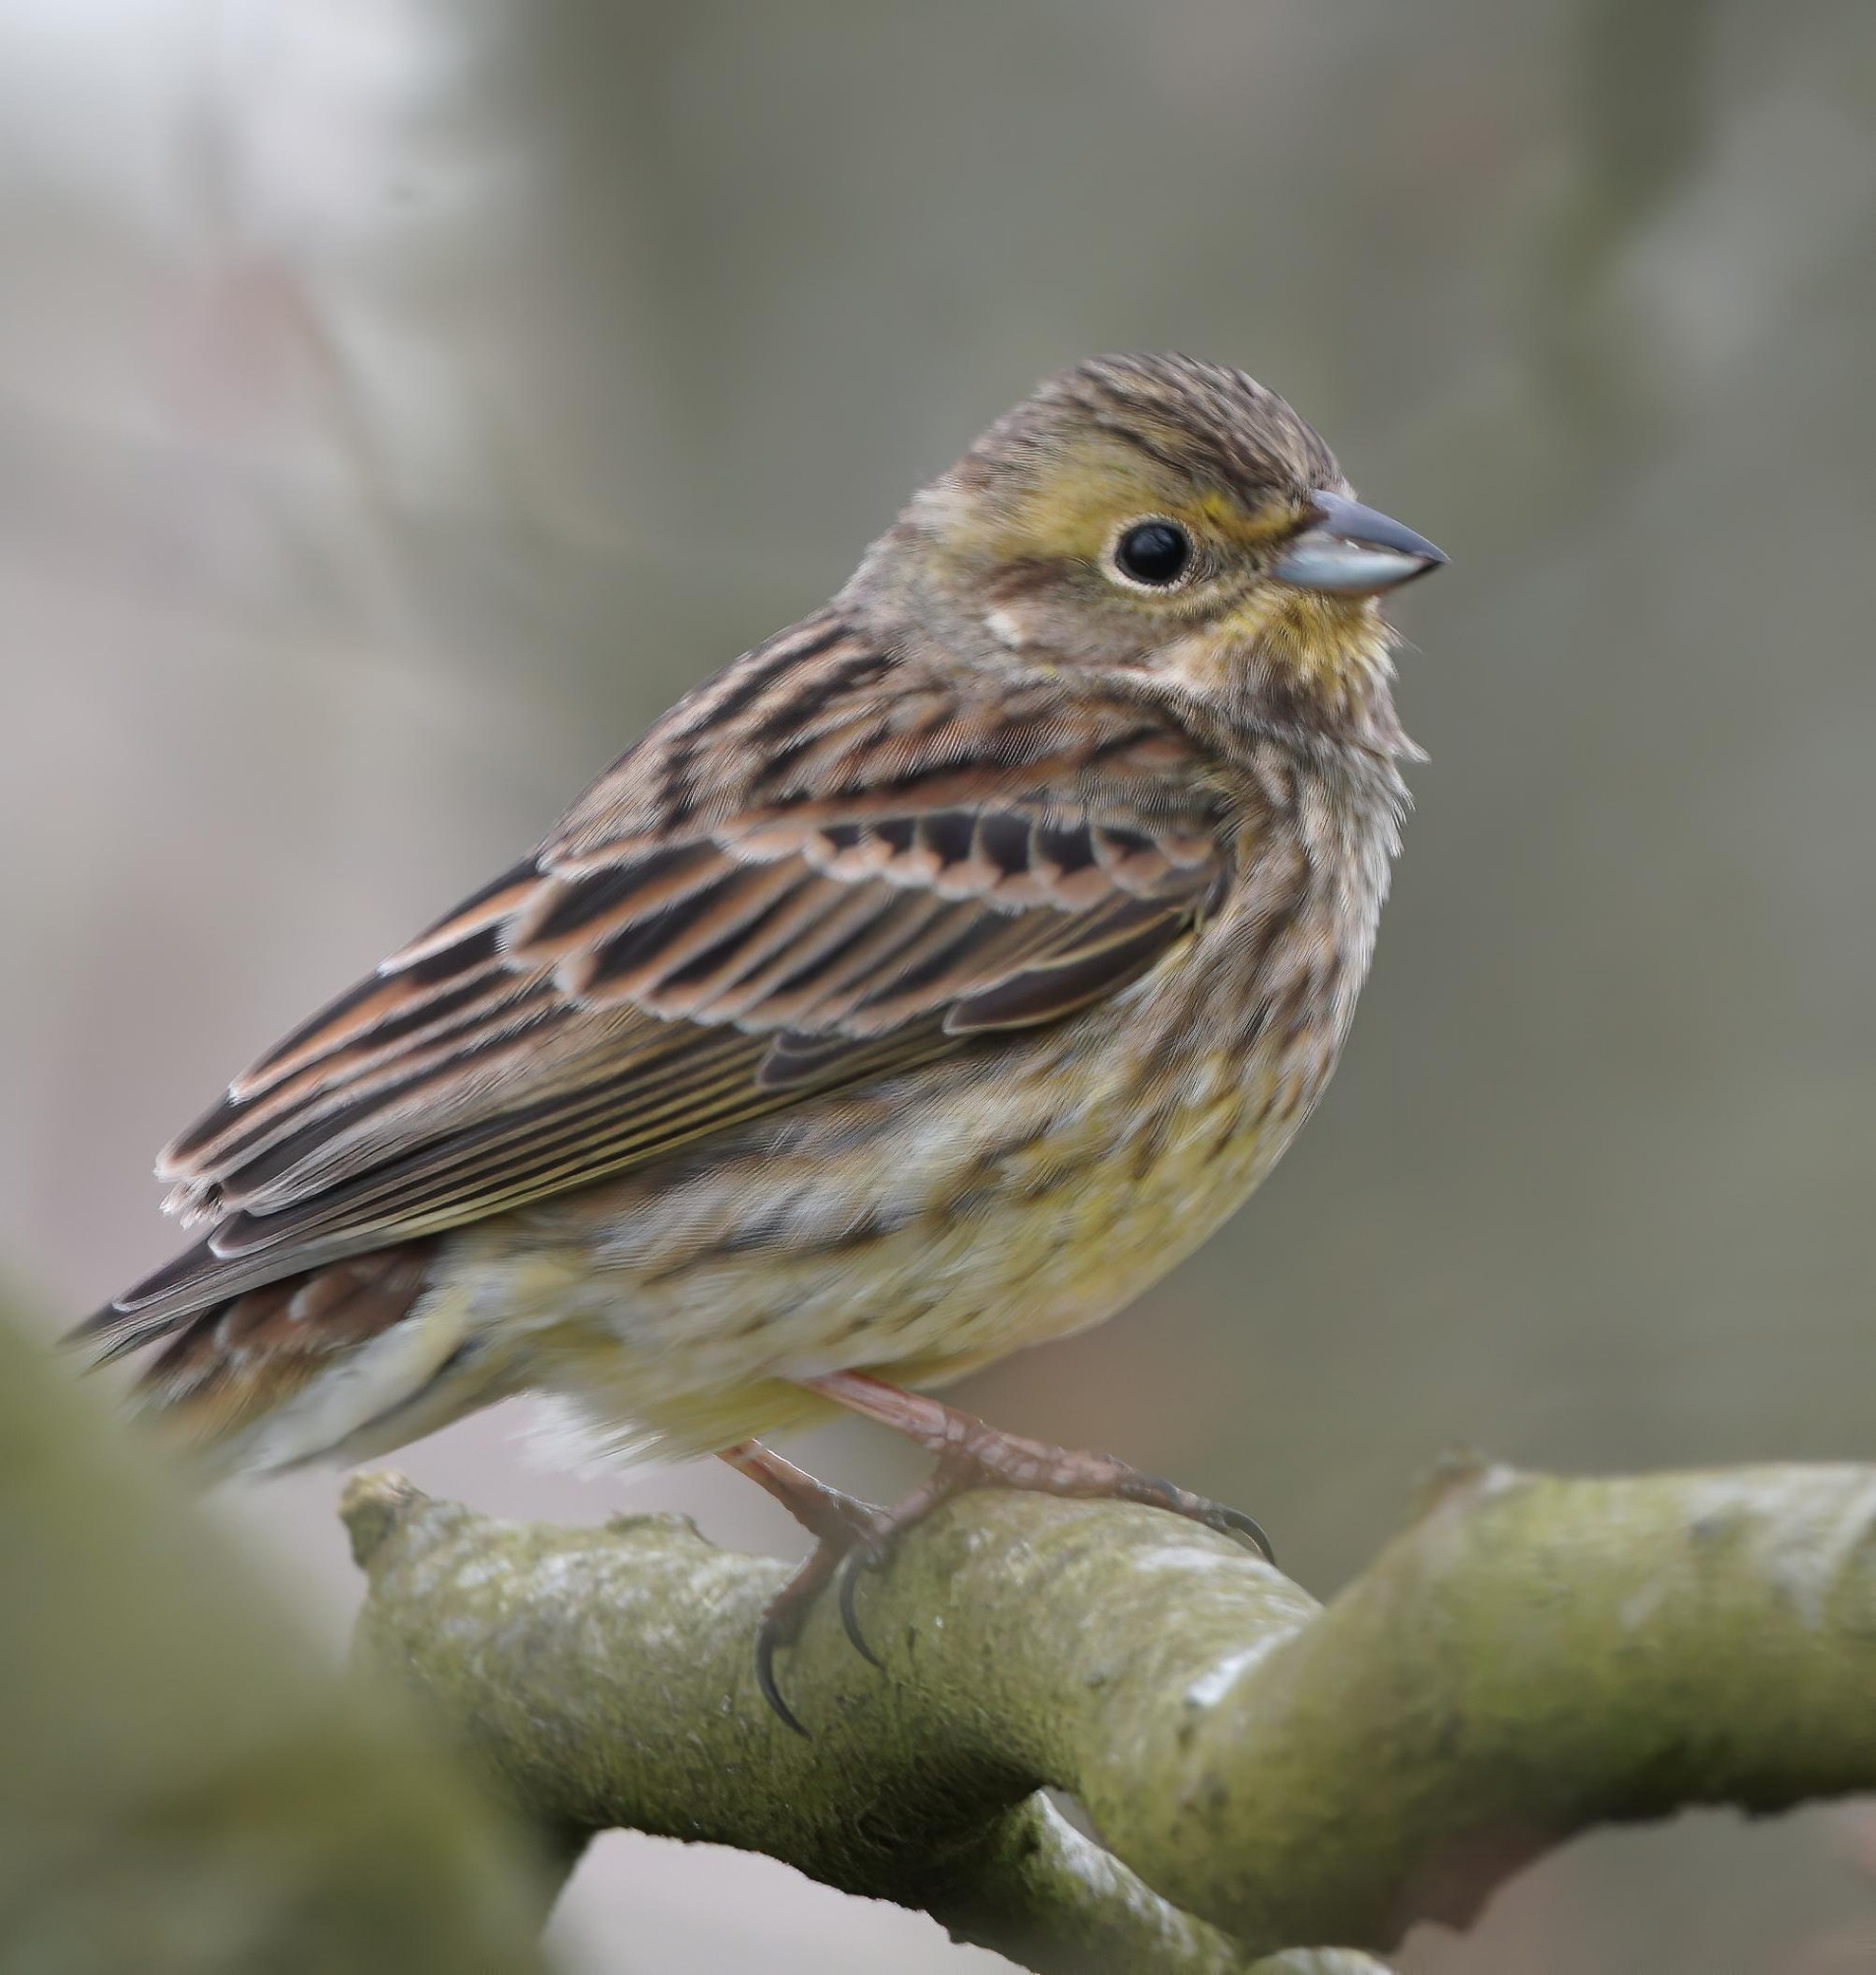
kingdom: Animalia
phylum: Chordata
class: Aves
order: Passeriformes
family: Emberizidae
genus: Emberiza
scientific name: Emberiza citrinella
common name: Gulspurv
